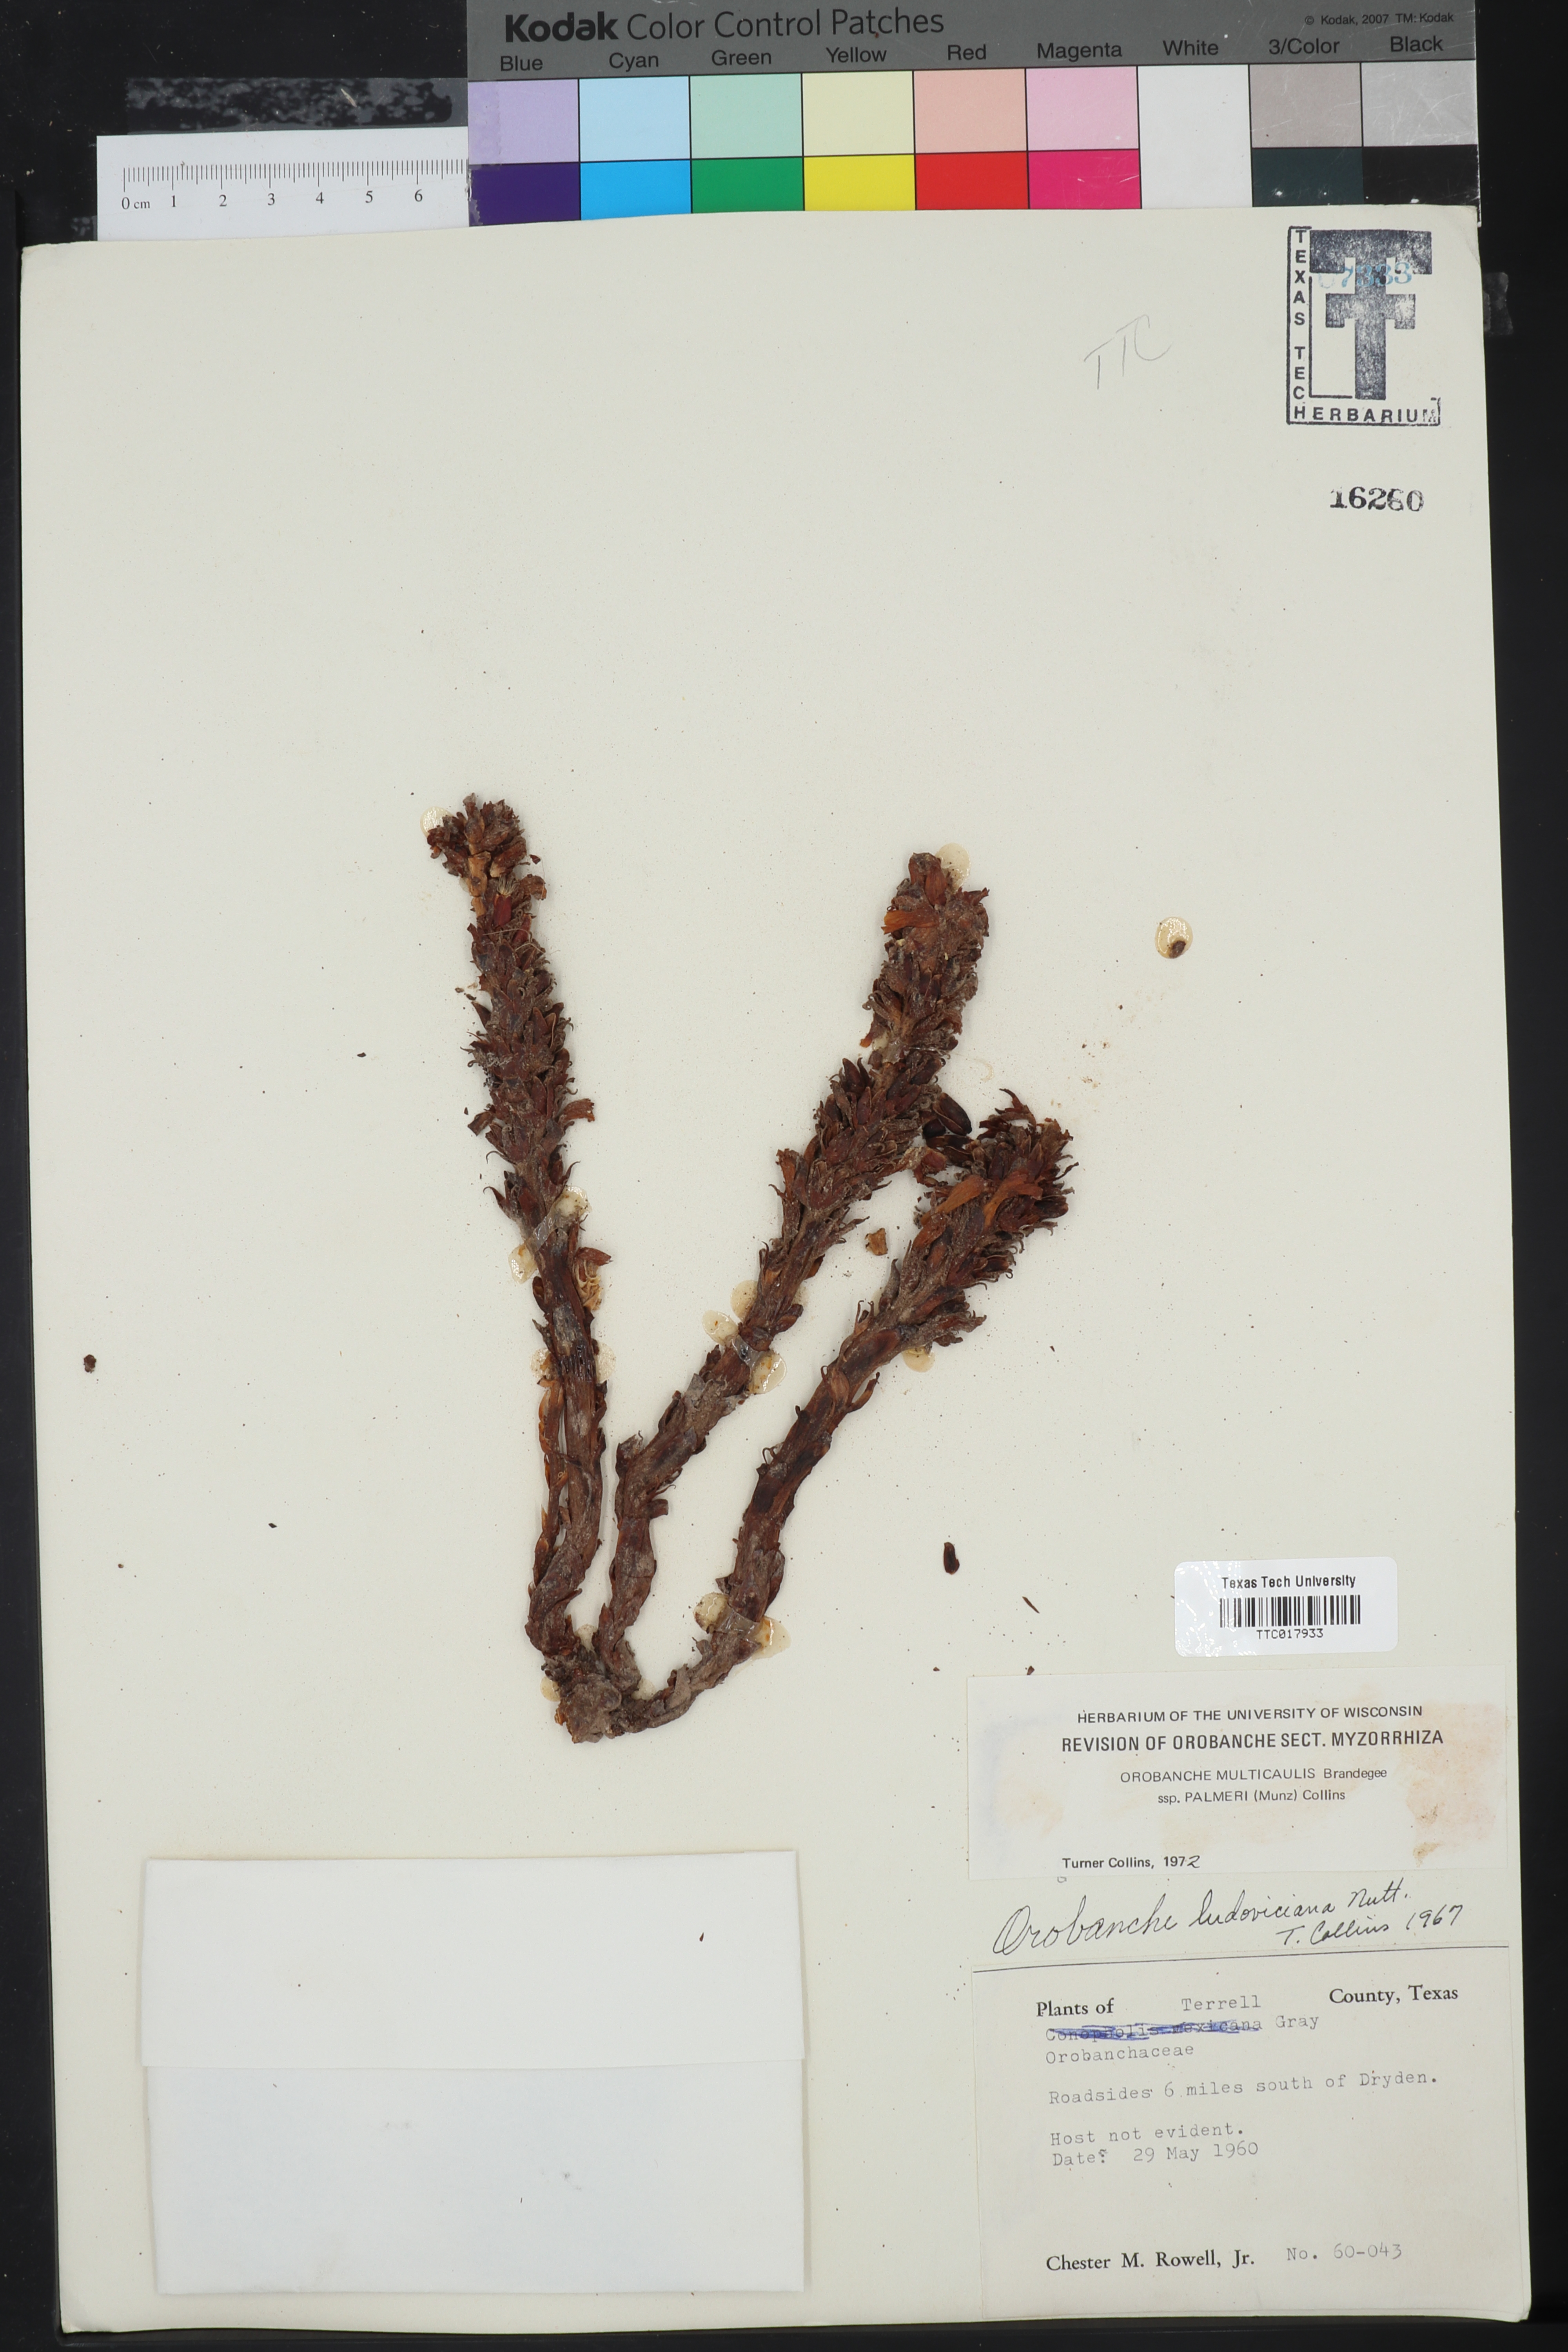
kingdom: Plantae
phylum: Tracheophyta
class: Magnoliopsida
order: Lamiales
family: Orobanchaceae
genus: Aphyllon
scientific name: Aphyllon cooperi
